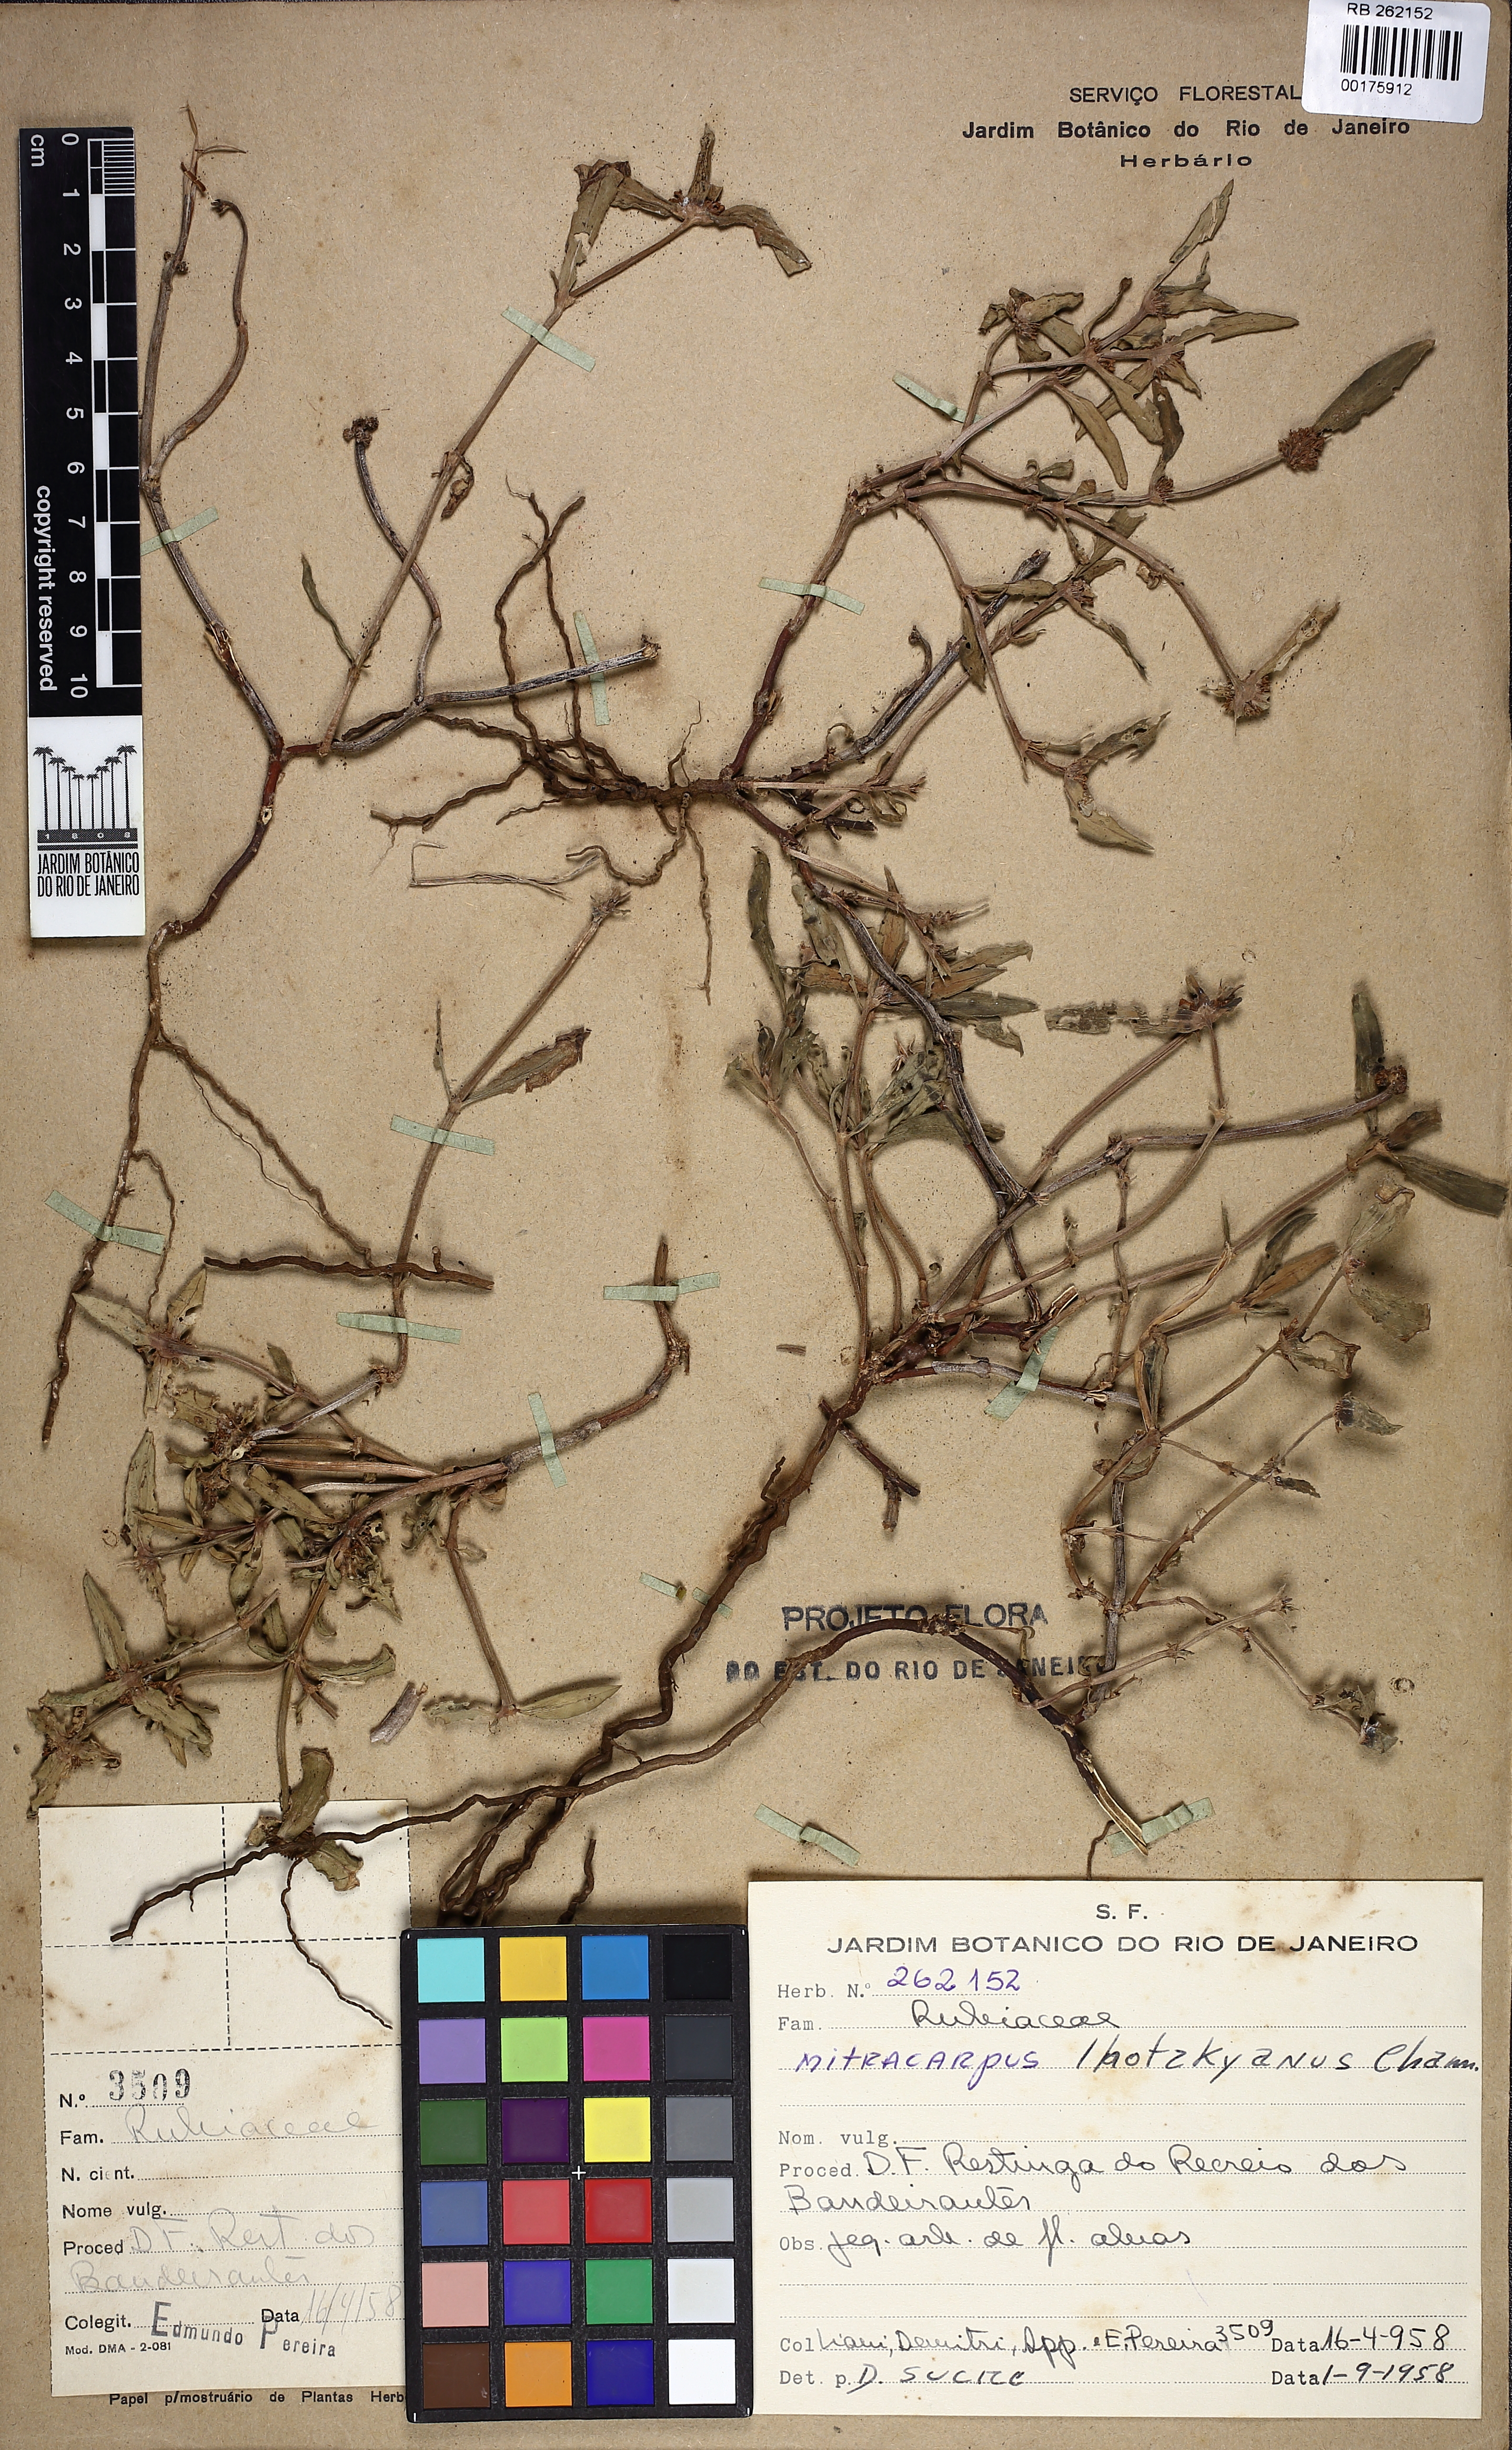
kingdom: Plantae
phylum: Tracheophyta
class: Magnoliopsida
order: Gentianales
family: Rubiaceae
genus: Mitracarpus
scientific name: Mitracarpus lhotzkyanus
